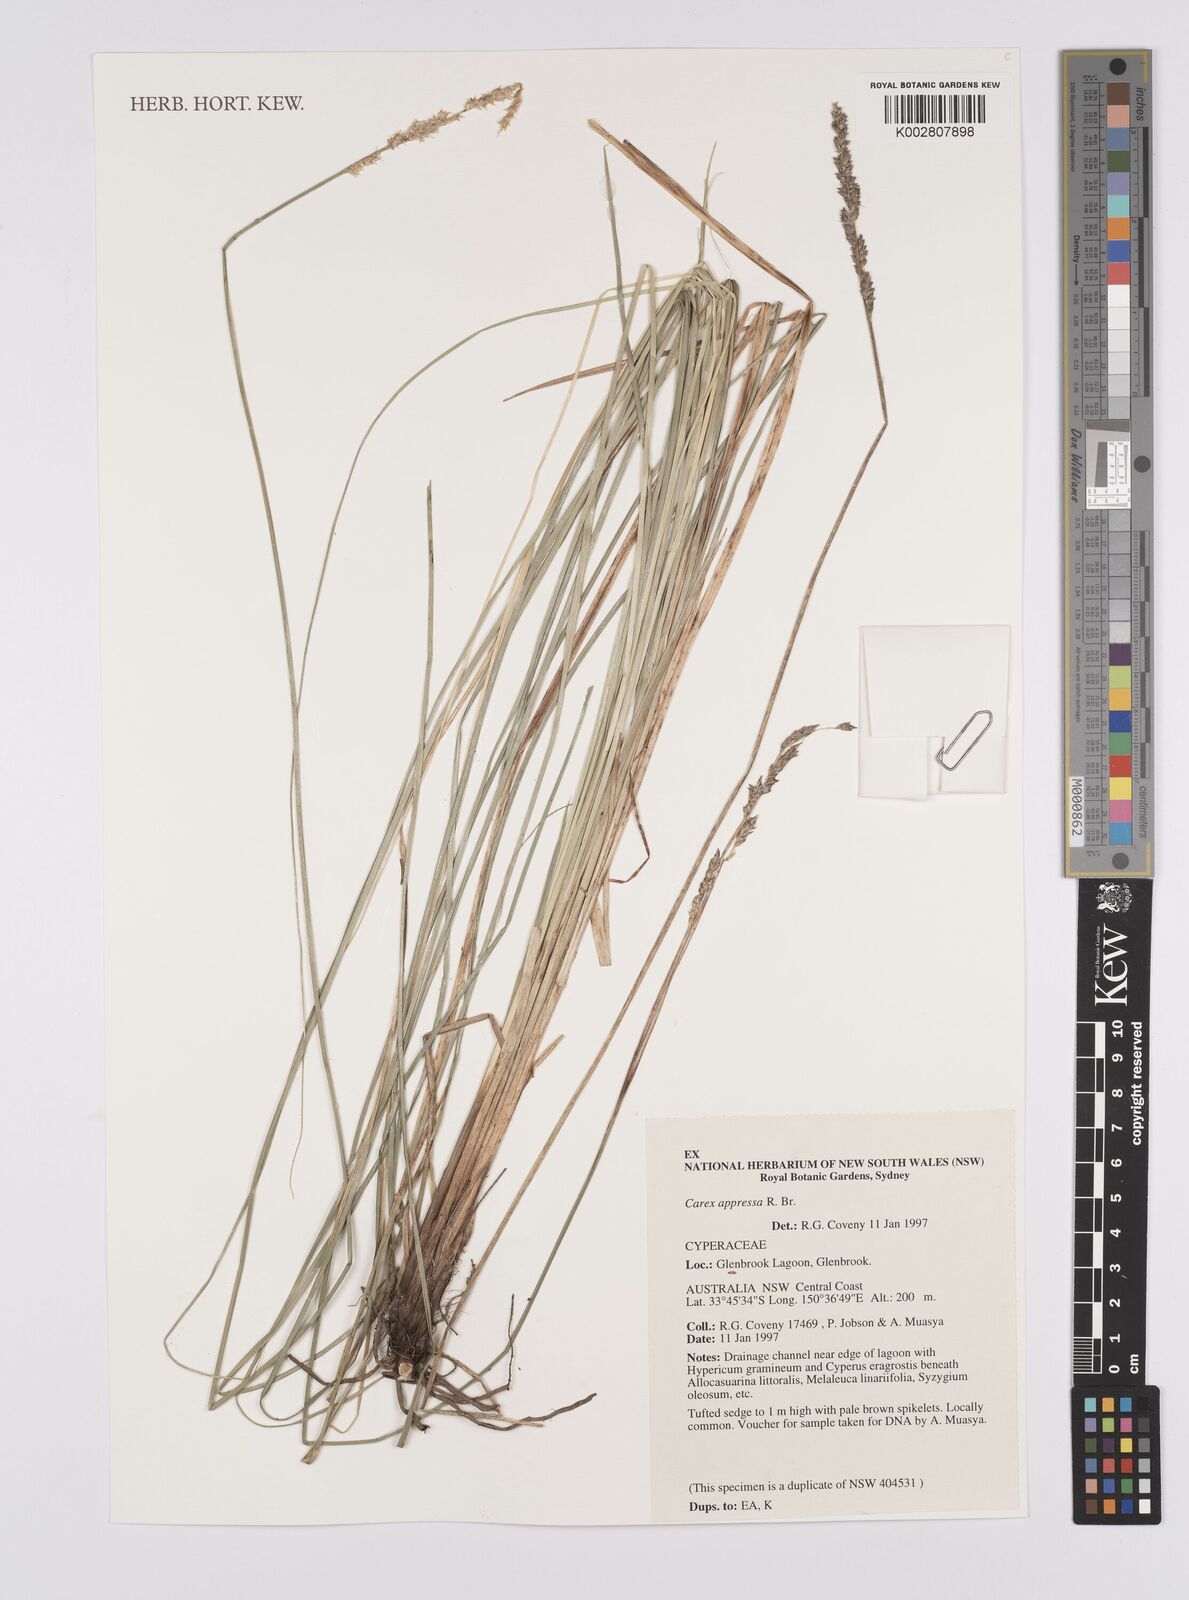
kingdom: Plantae
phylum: Tracheophyta
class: Liliopsida
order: Poales
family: Cyperaceae
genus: Carex
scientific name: Carex appressa
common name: Tussock sedge
